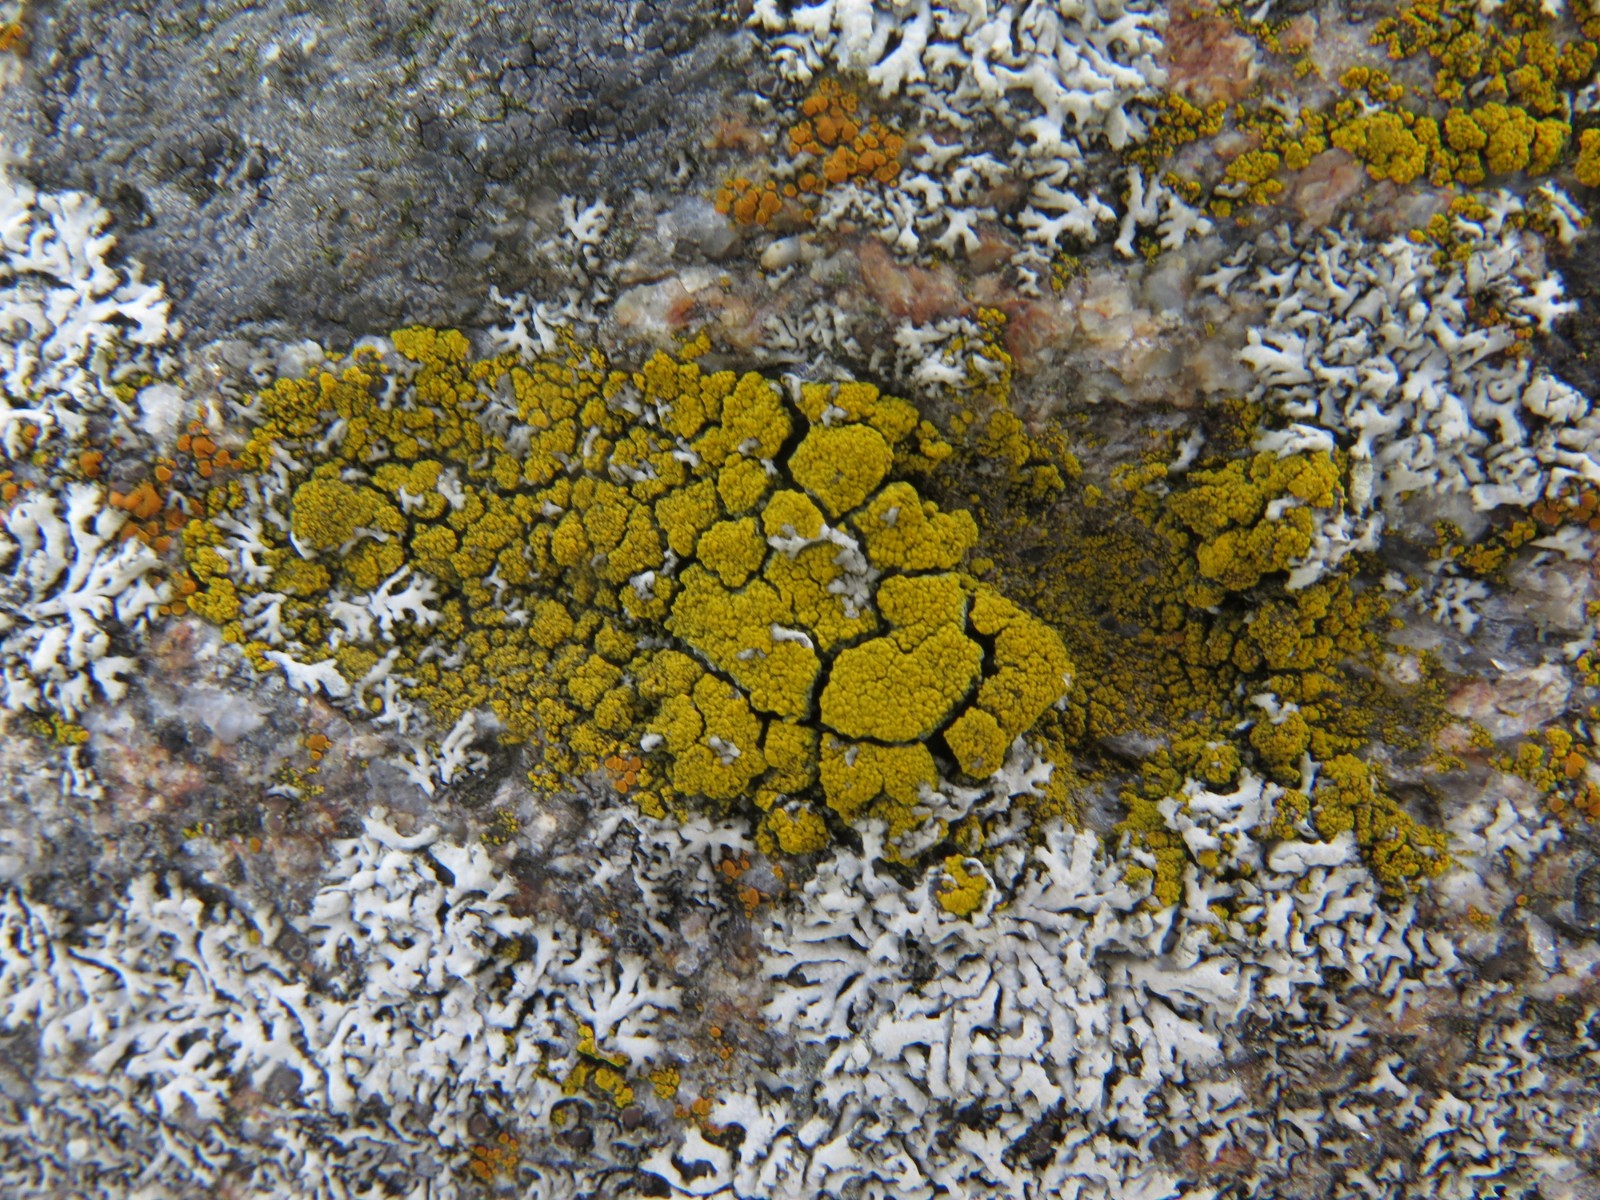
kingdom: Fungi
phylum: Ascomycota
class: Candelariomycetes
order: Candelariales
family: Candelariaceae
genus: Candelariella
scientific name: Candelariella vitellina
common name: almindelig æggeblommelav
